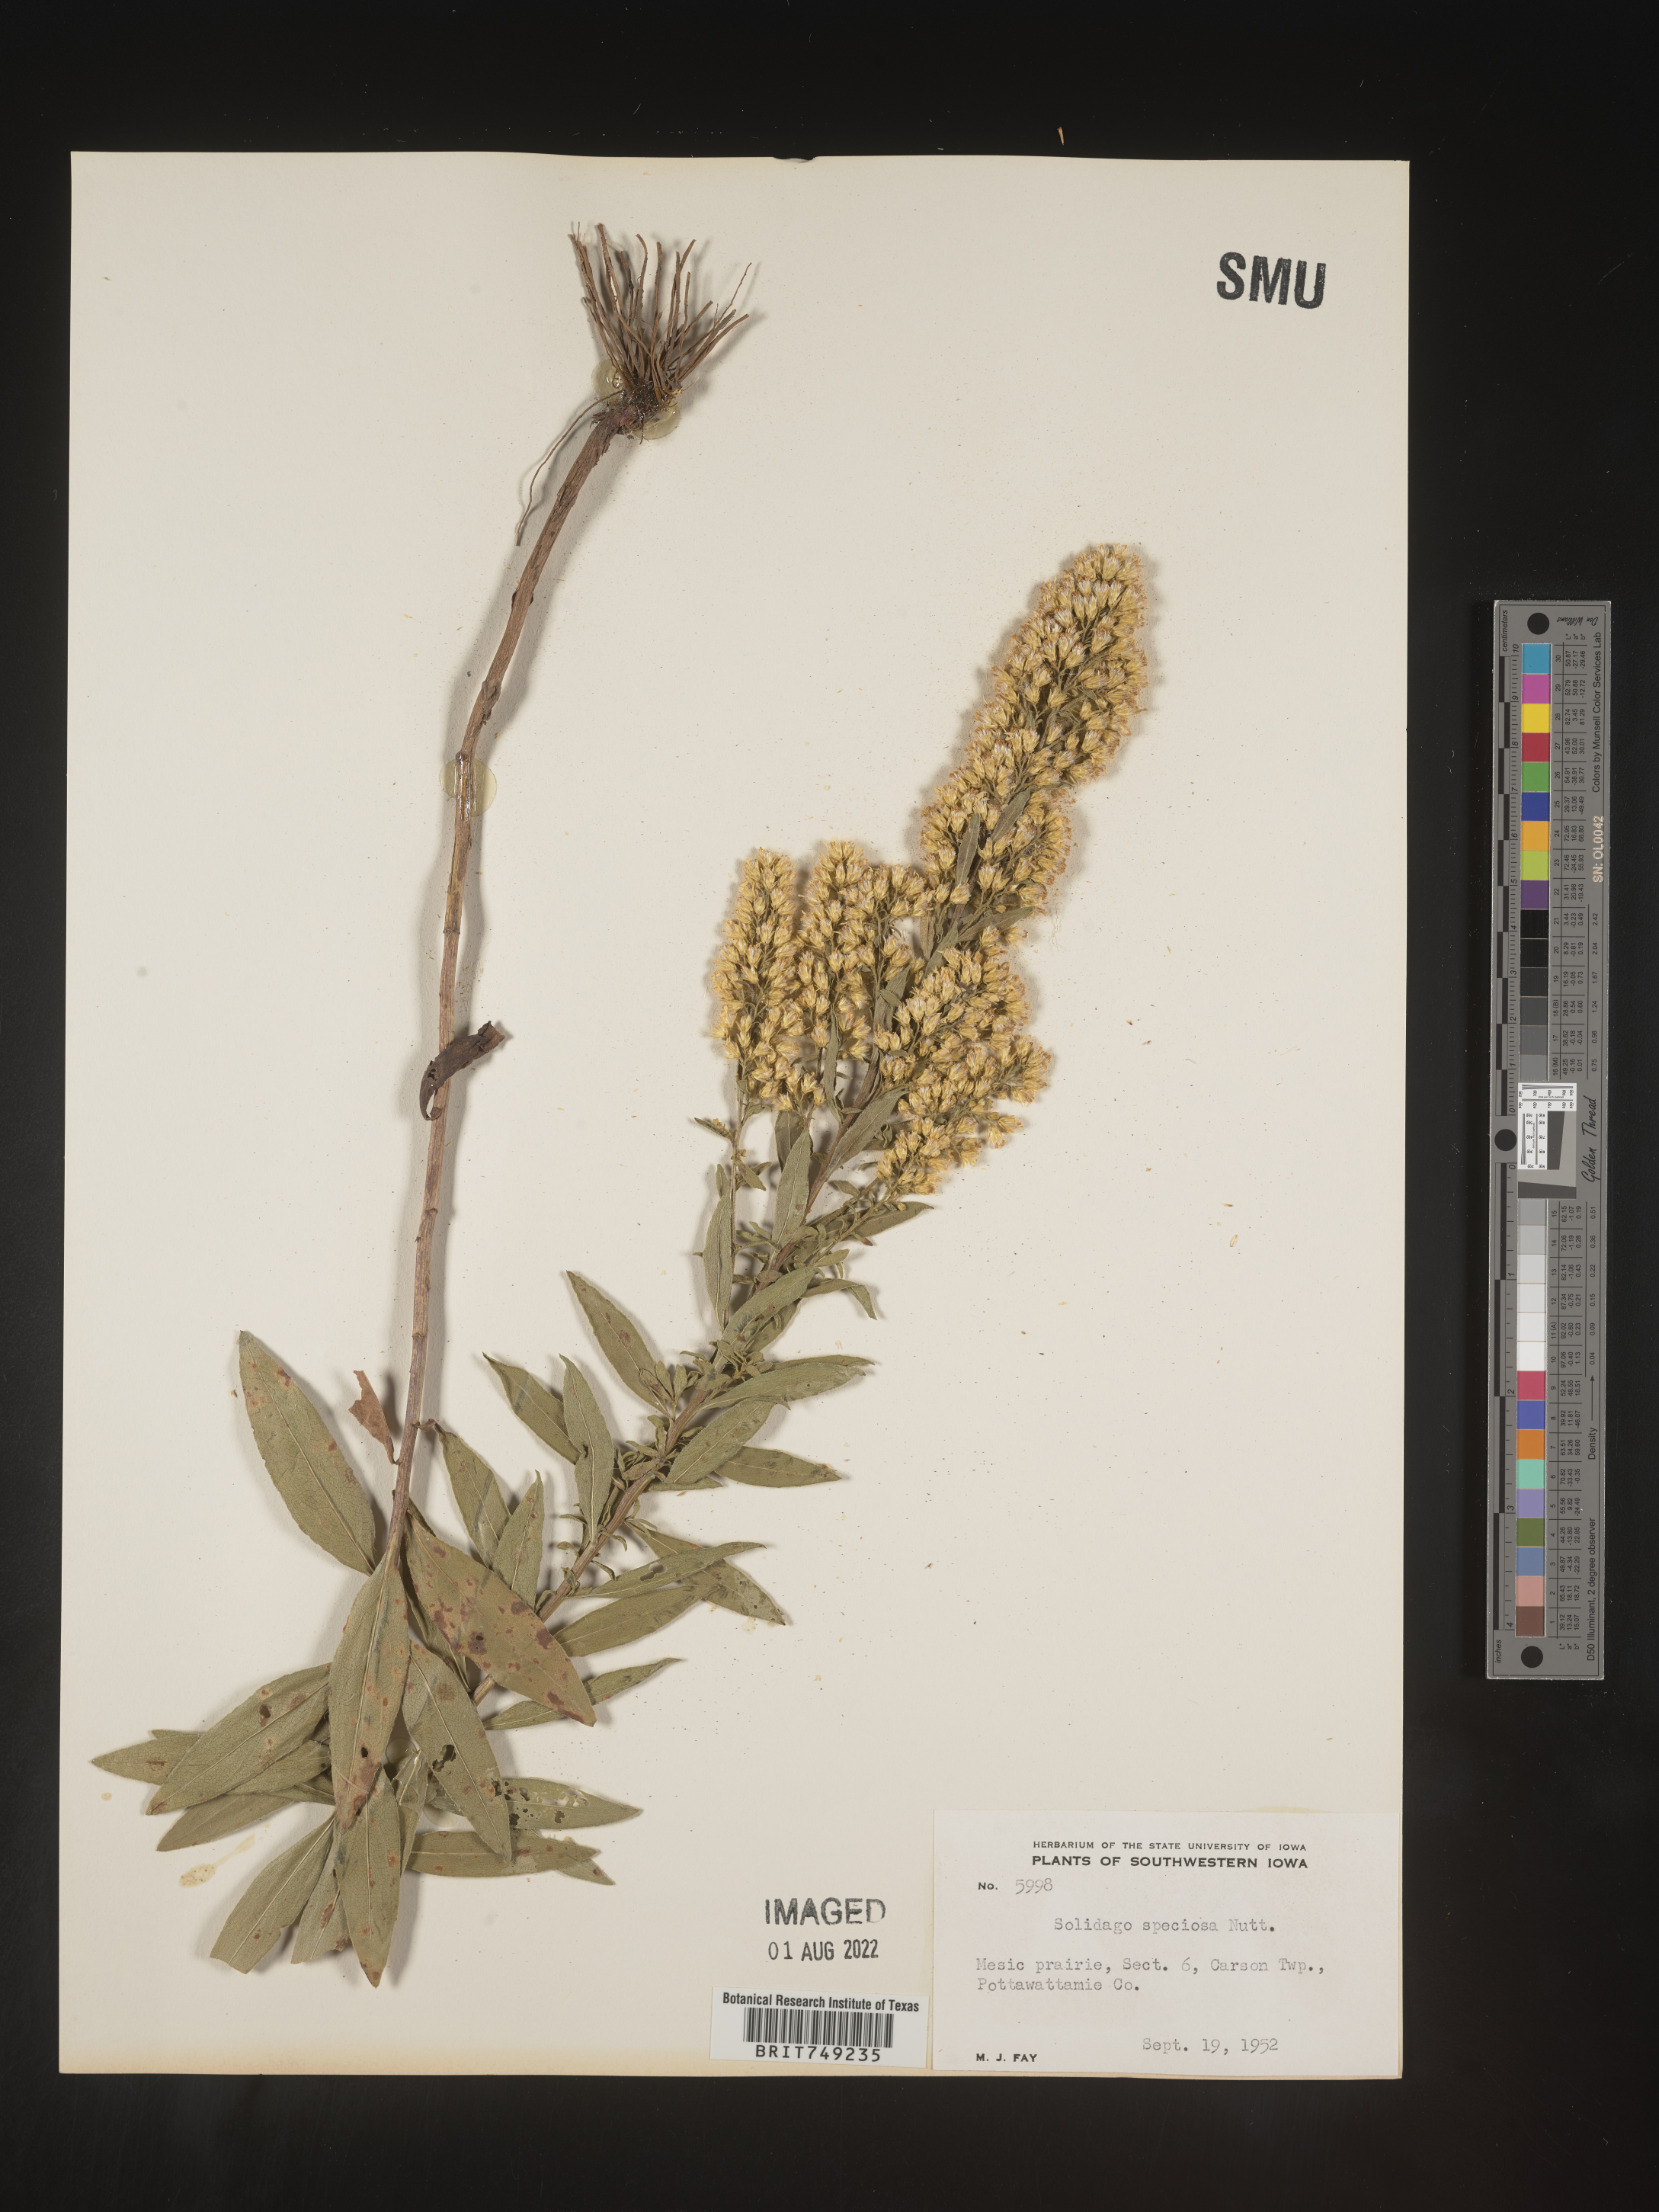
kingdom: Plantae
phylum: Tracheophyta
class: Magnoliopsida
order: Asterales
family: Asteraceae
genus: Solidago
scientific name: Solidago speciosa
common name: Showy goldenrod
